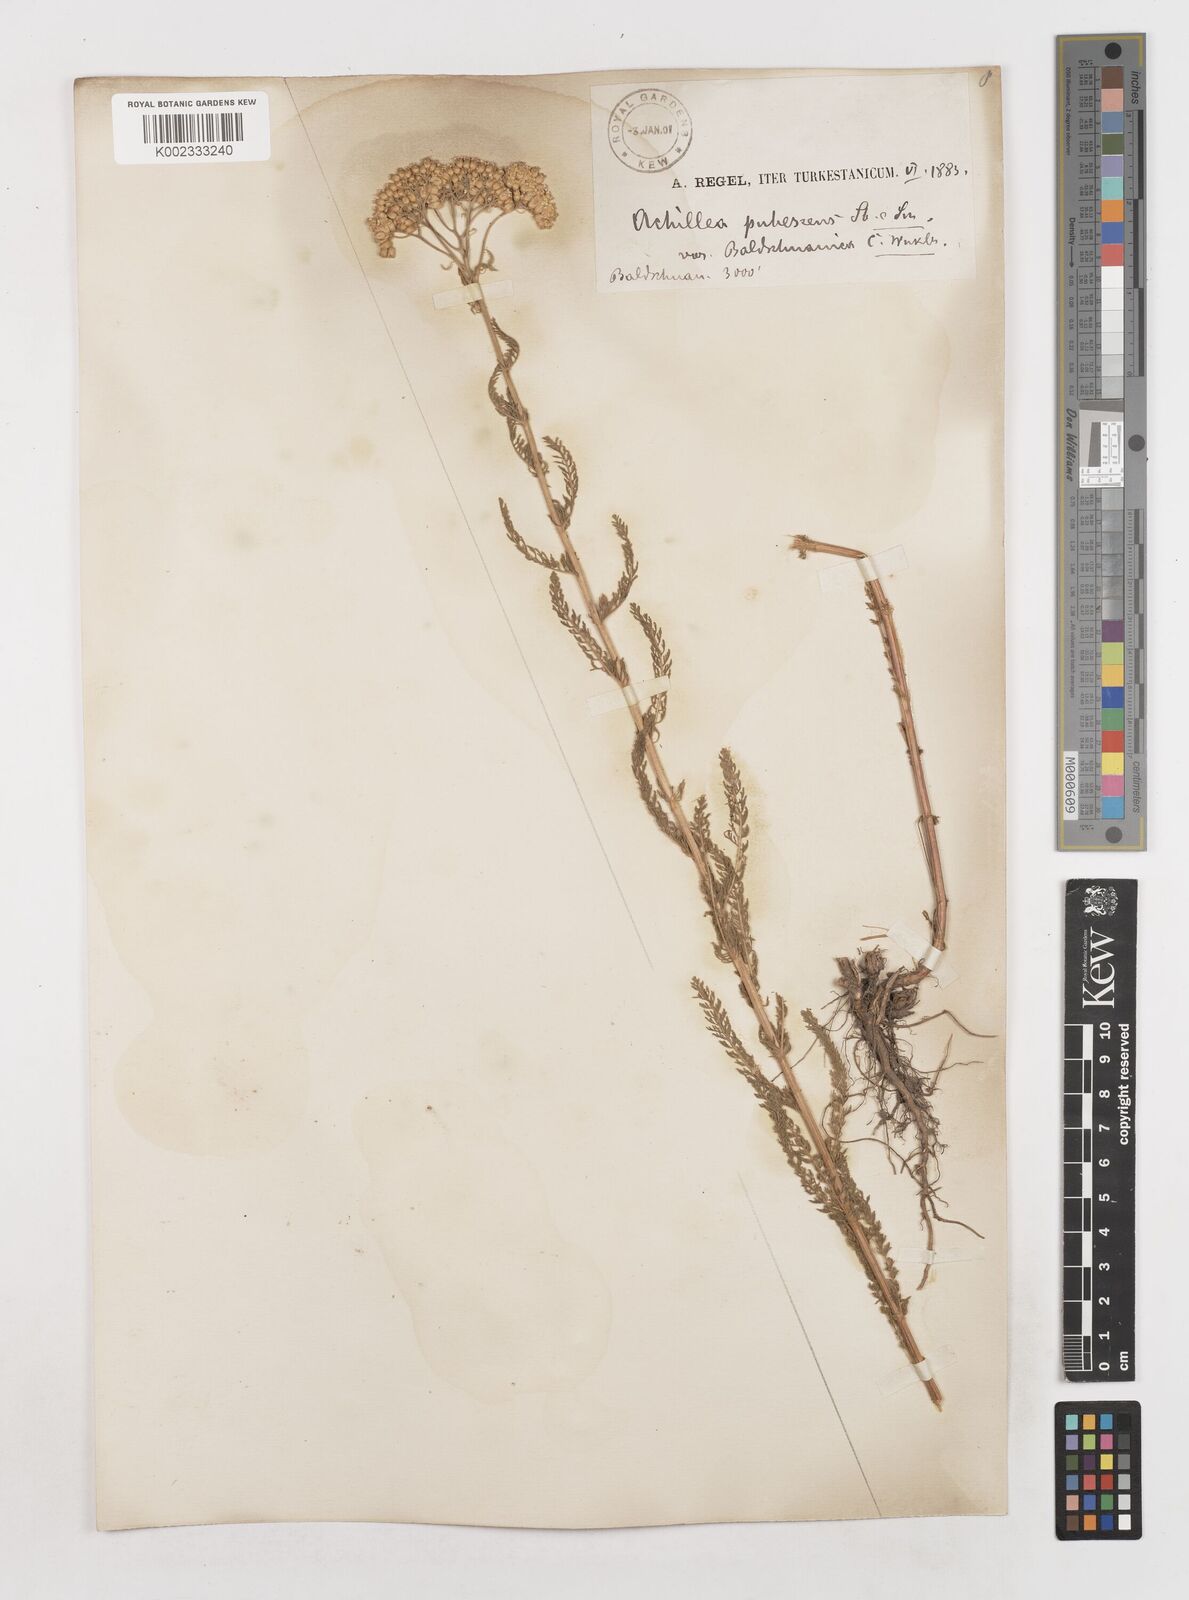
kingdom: Plantae
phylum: Tracheophyta
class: Magnoliopsida
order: Asterales
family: Asteraceae
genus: Achillea
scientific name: Achillea micrantha
